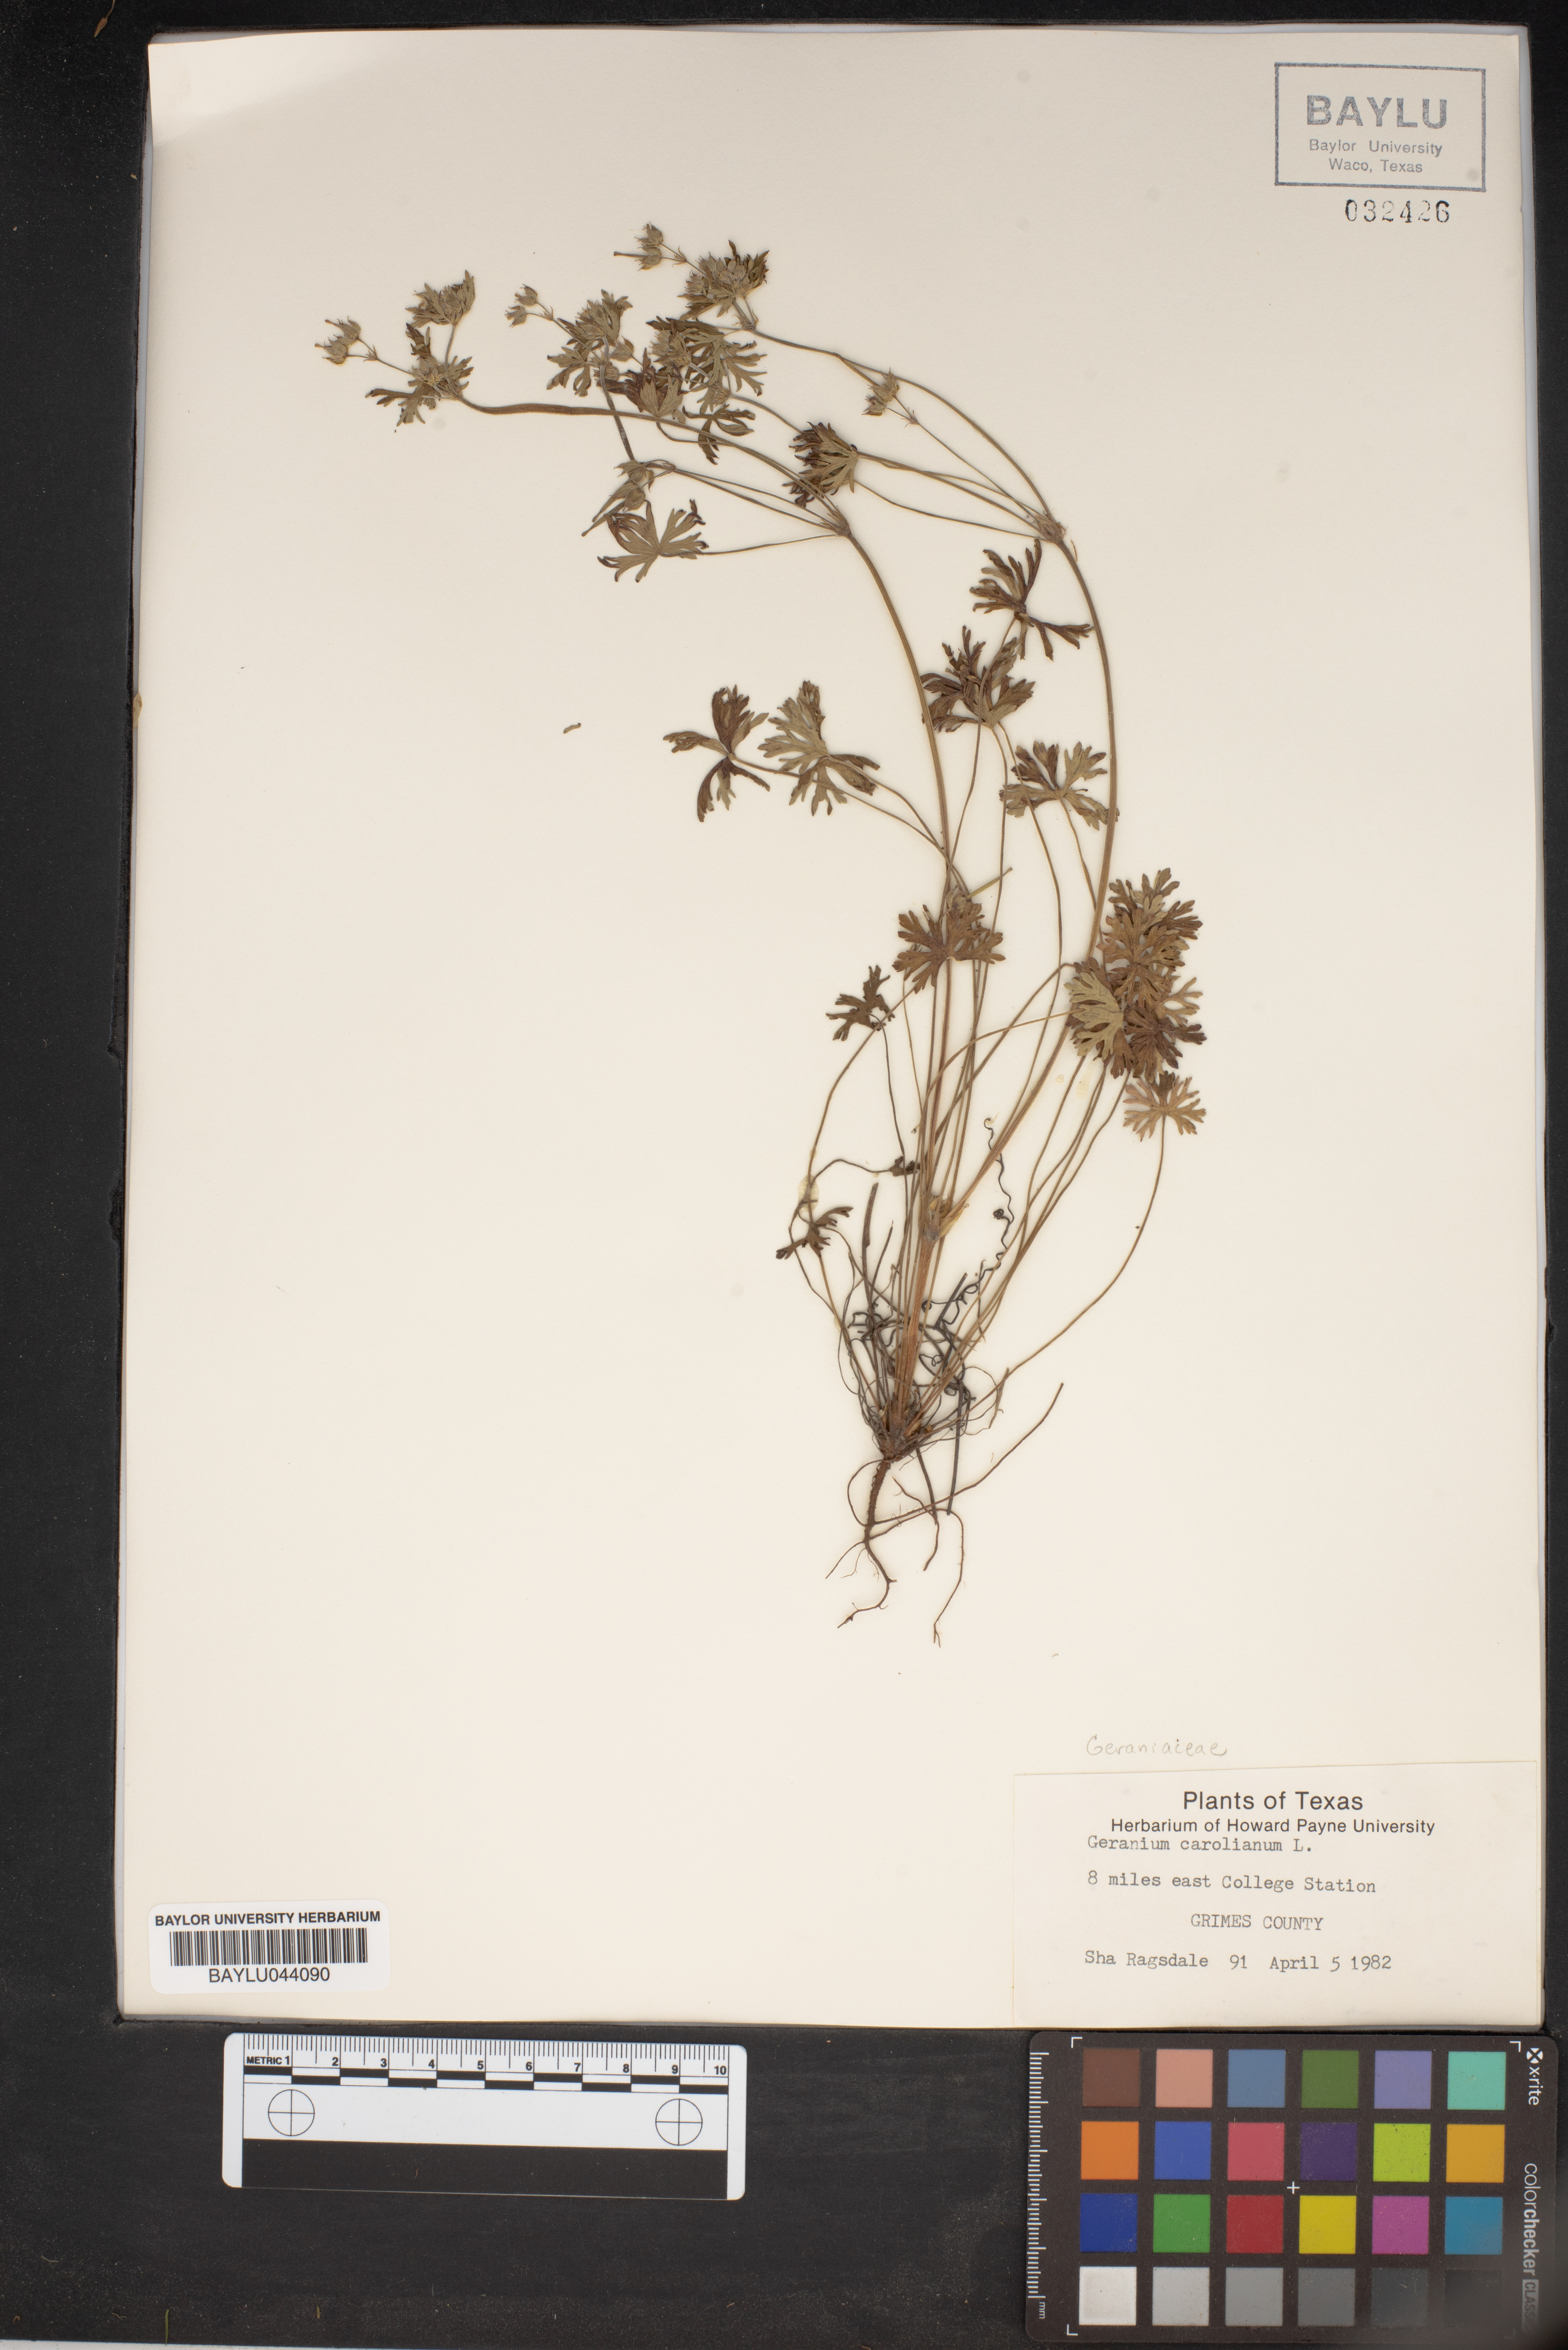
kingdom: Plantae
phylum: Tracheophyta
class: Magnoliopsida
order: Geraniales
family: Geraniaceae
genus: Geranium
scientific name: Geranium carolinianum
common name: Carolina crane's-bill
